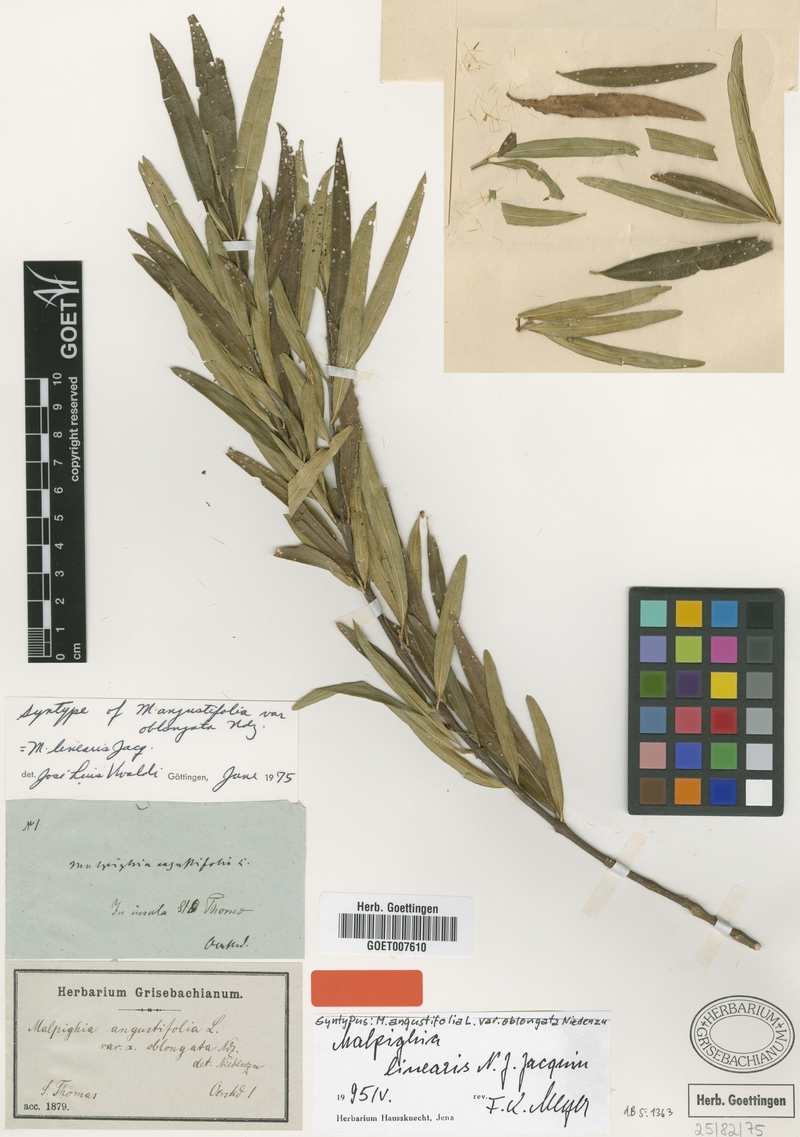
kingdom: Plantae
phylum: Tracheophyta
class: Magnoliopsida
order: Malpighiales
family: Malpighiaceae
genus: Malpighia
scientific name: Malpighia linearis
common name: Bastard cherry
